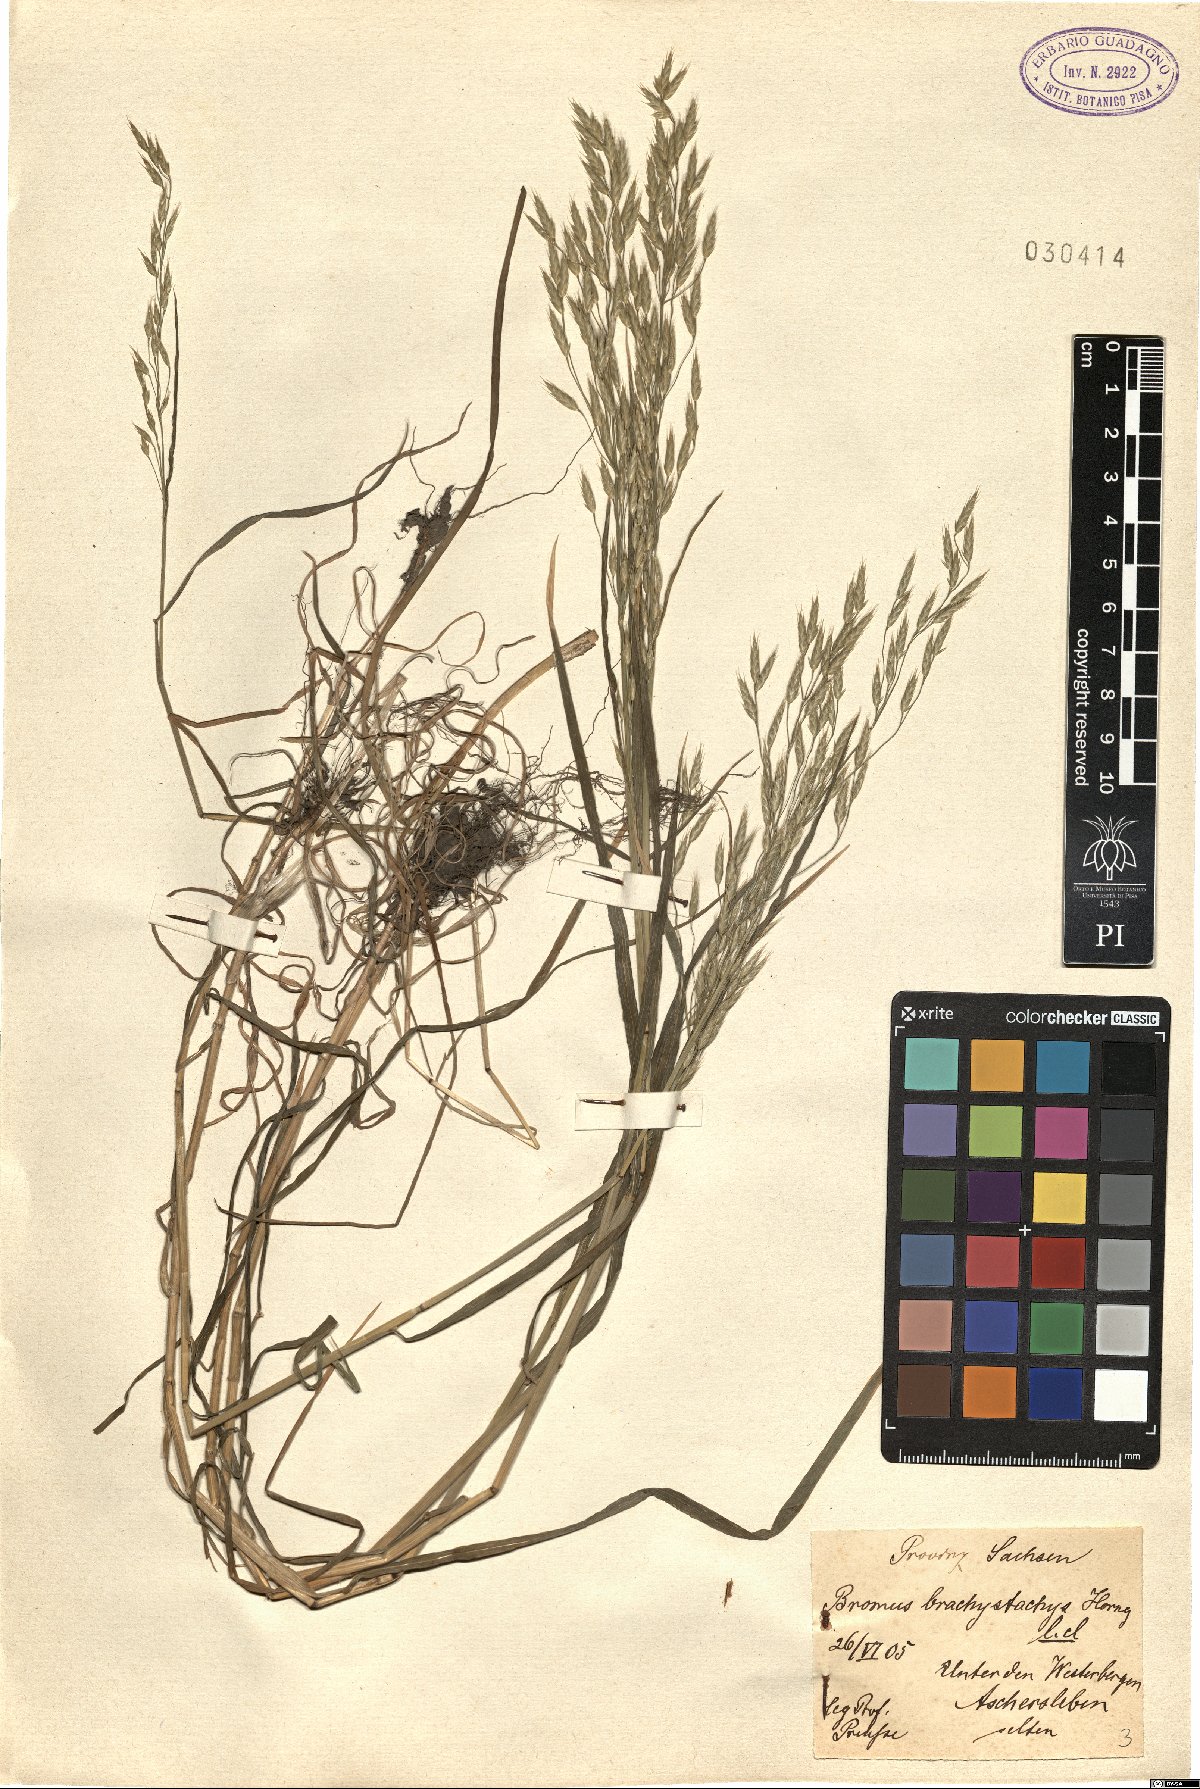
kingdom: Plantae
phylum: Tracheophyta
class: Liliopsida
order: Poales
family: Poaceae
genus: Bromus
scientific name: Bromus brachystachys
